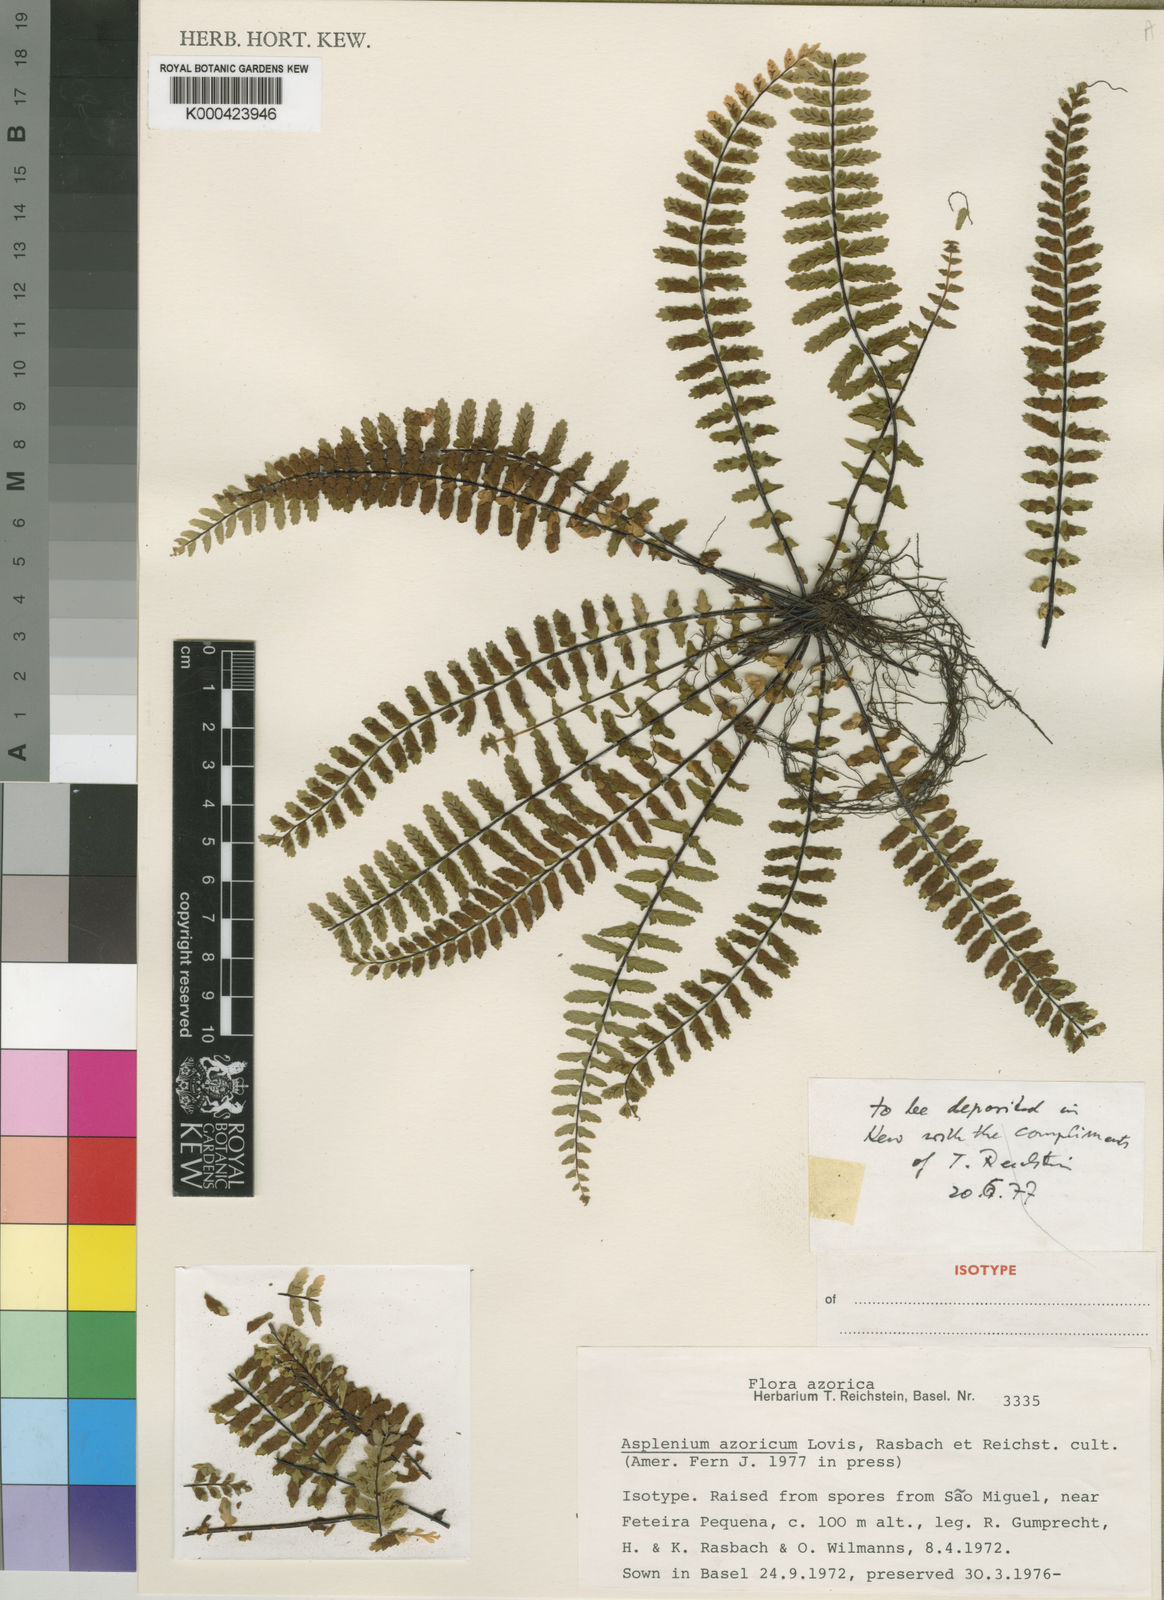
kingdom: Plantae
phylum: Tracheophyta
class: Polypodiopsida
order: Polypodiales
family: Aspleniaceae
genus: Asplenium
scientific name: Asplenium
